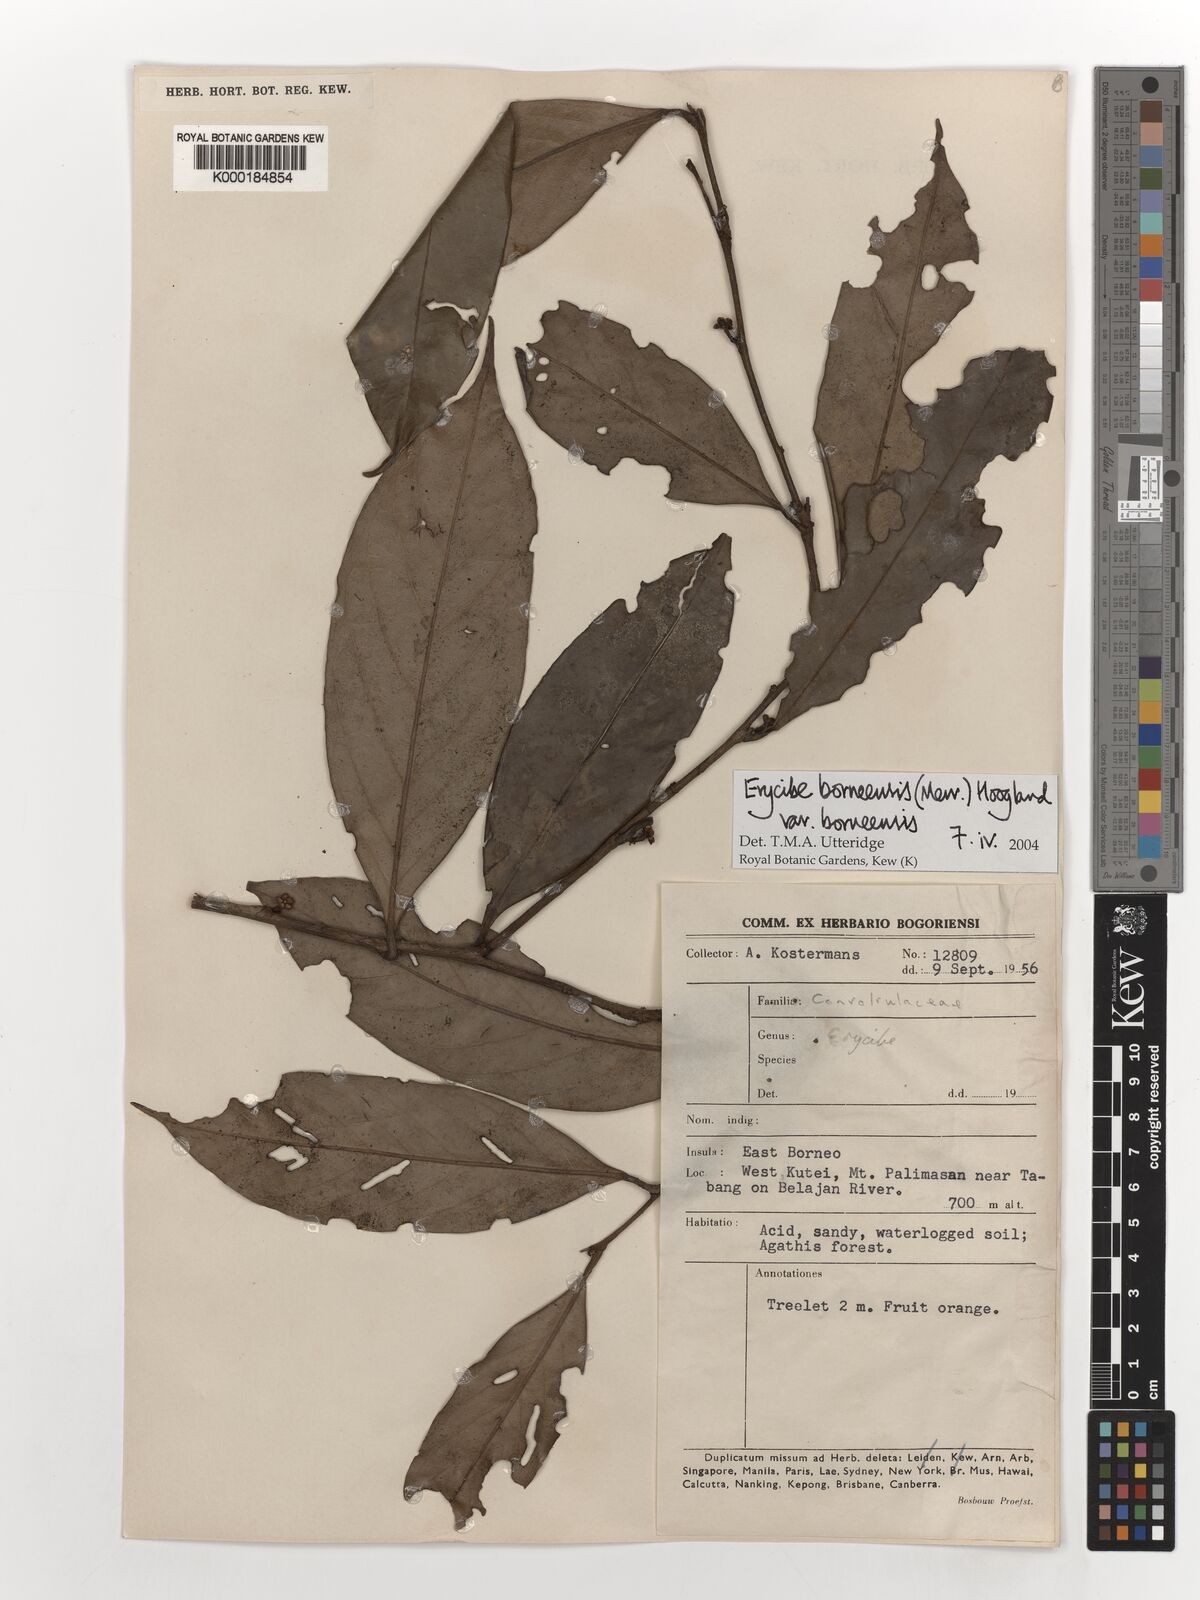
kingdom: Plantae
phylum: Tracheophyta
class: Magnoliopsida
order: Solanales
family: Convolvulaceae
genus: Erycibe
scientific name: Erycibe borneensis
